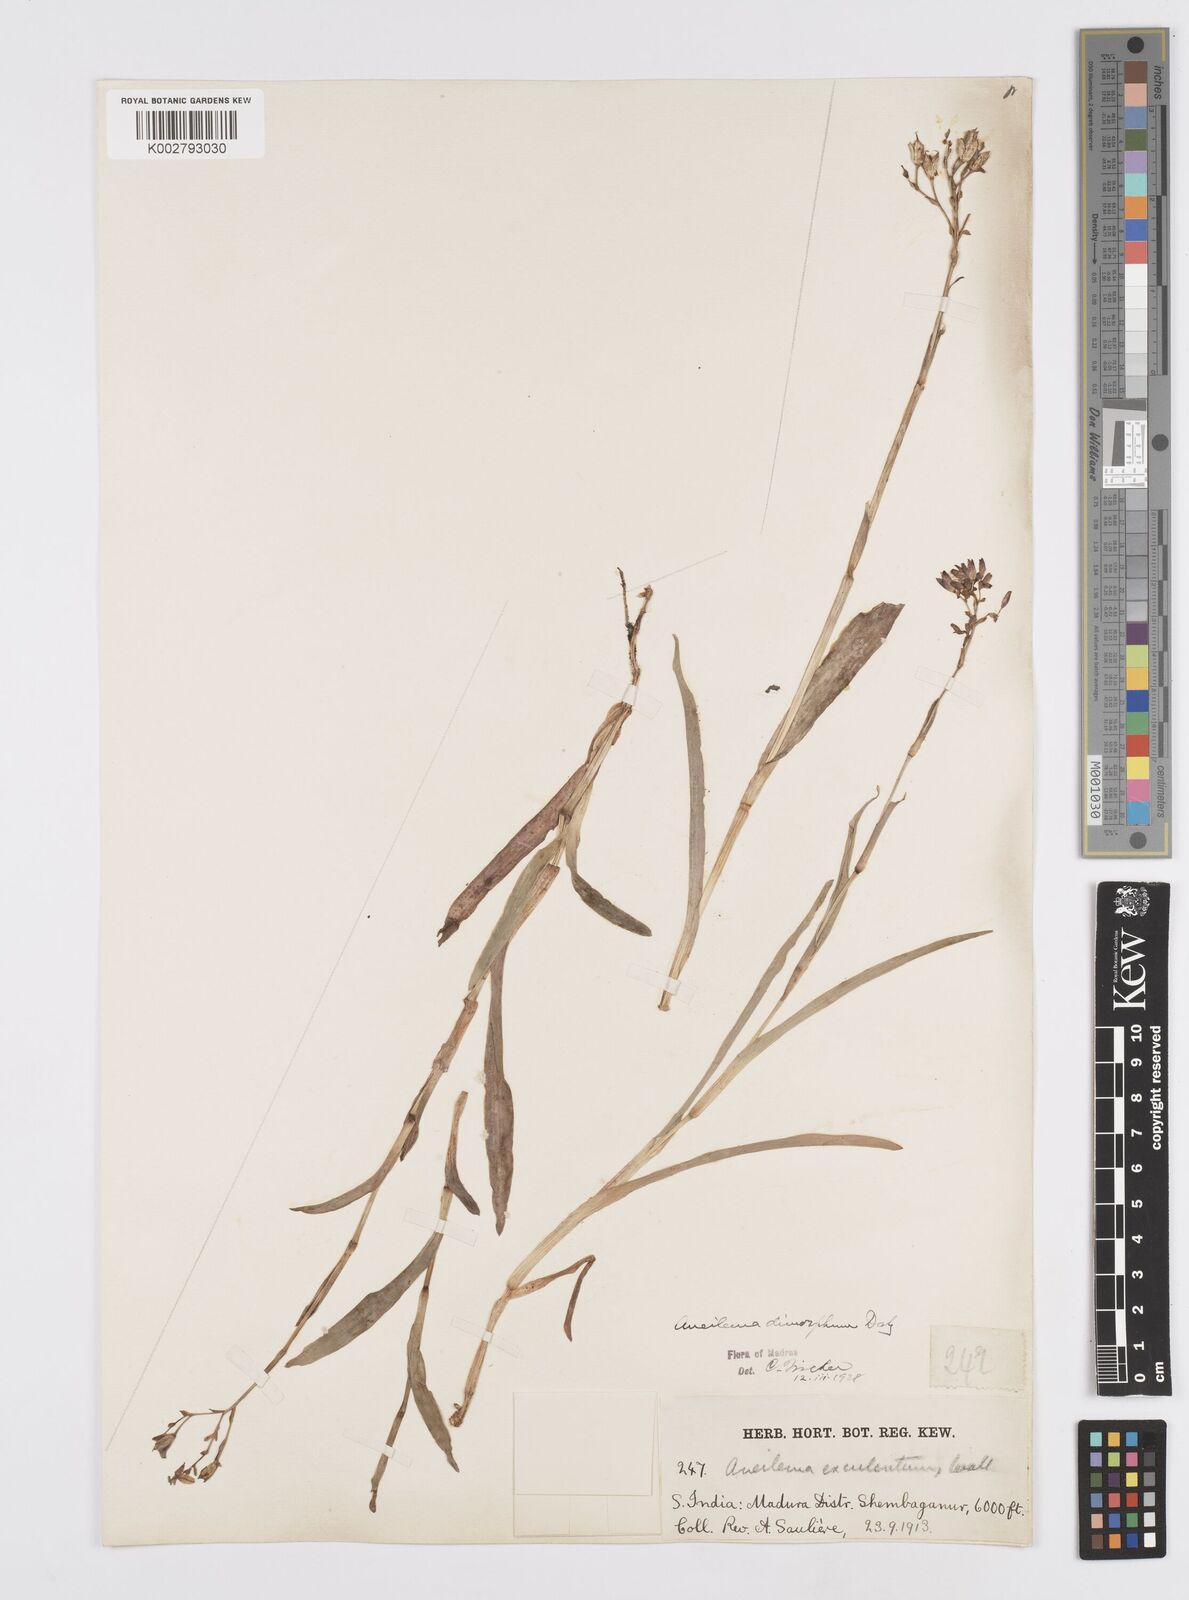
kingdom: Plantae
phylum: Tracheophyta
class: Liliopsida
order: Commelinales
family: Commelinaceae
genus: Murdannia
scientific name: Murdannia dimorpha
